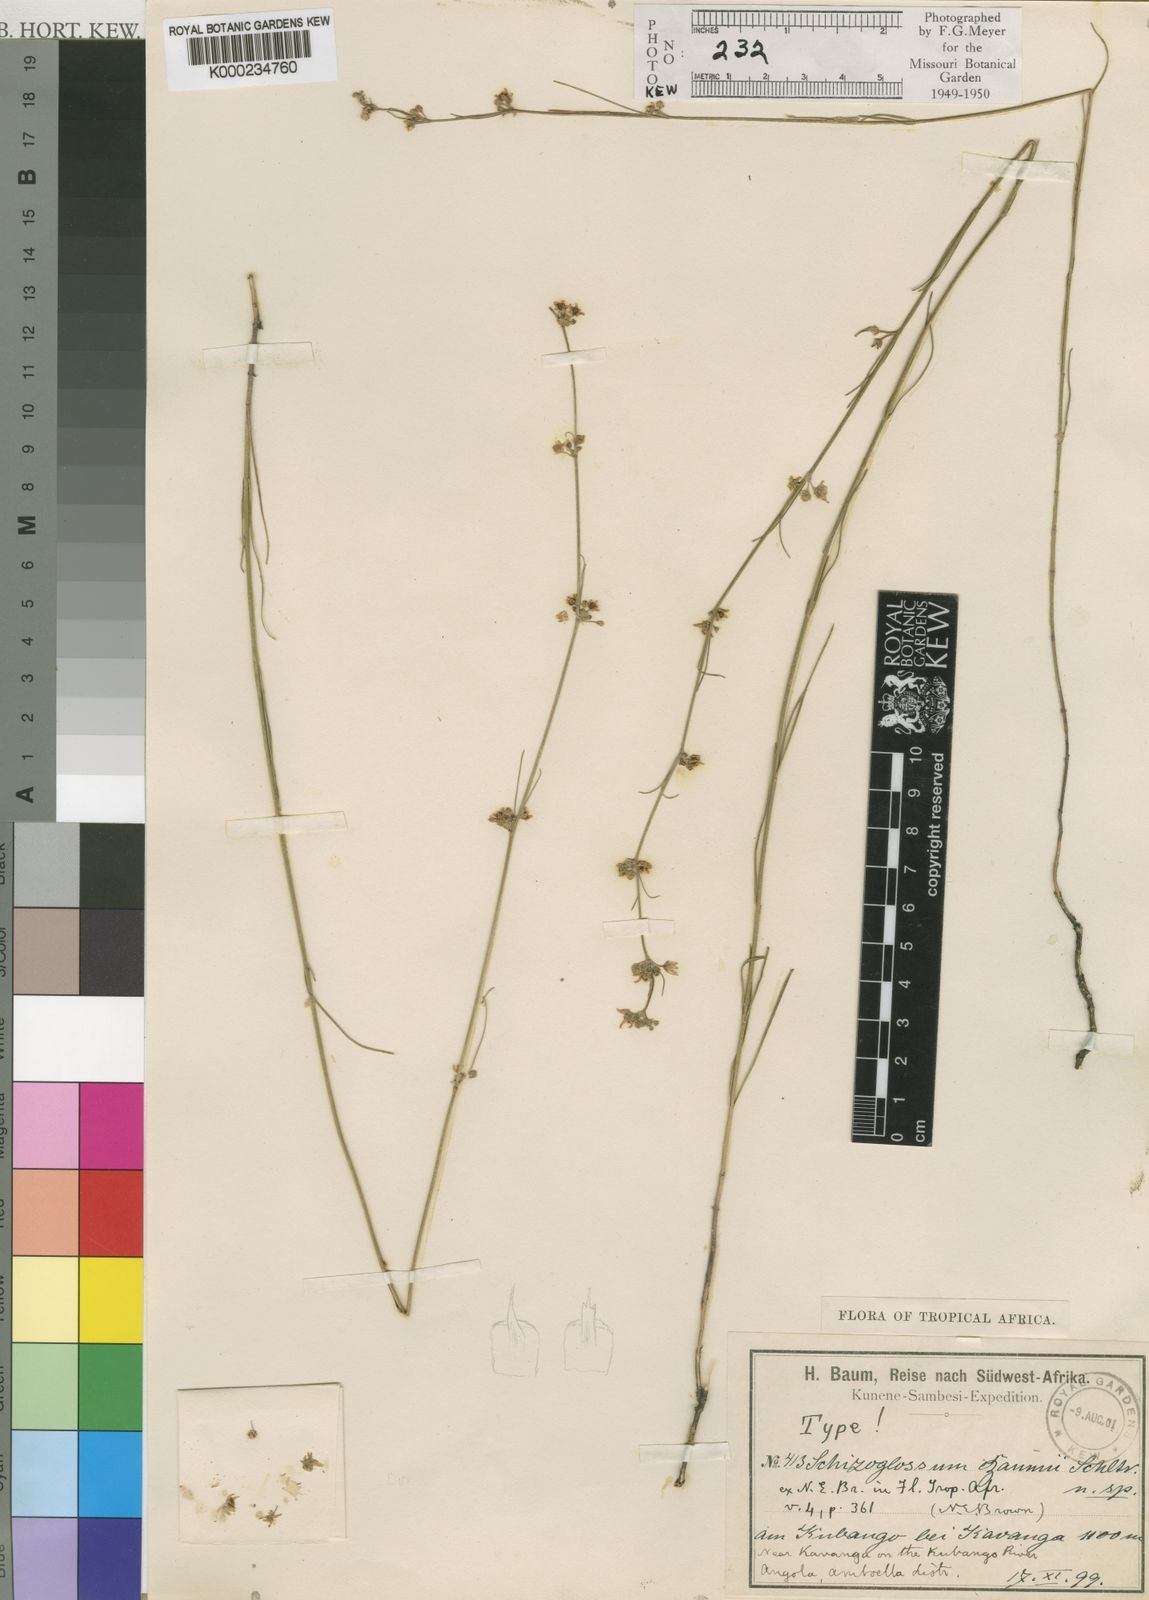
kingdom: Plantae
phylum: Tracheophyta
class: Magnoliopsida
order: Gentianales
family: Apocynaceae
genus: Aspidoglossum
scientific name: Aspidoglossum masaicum
